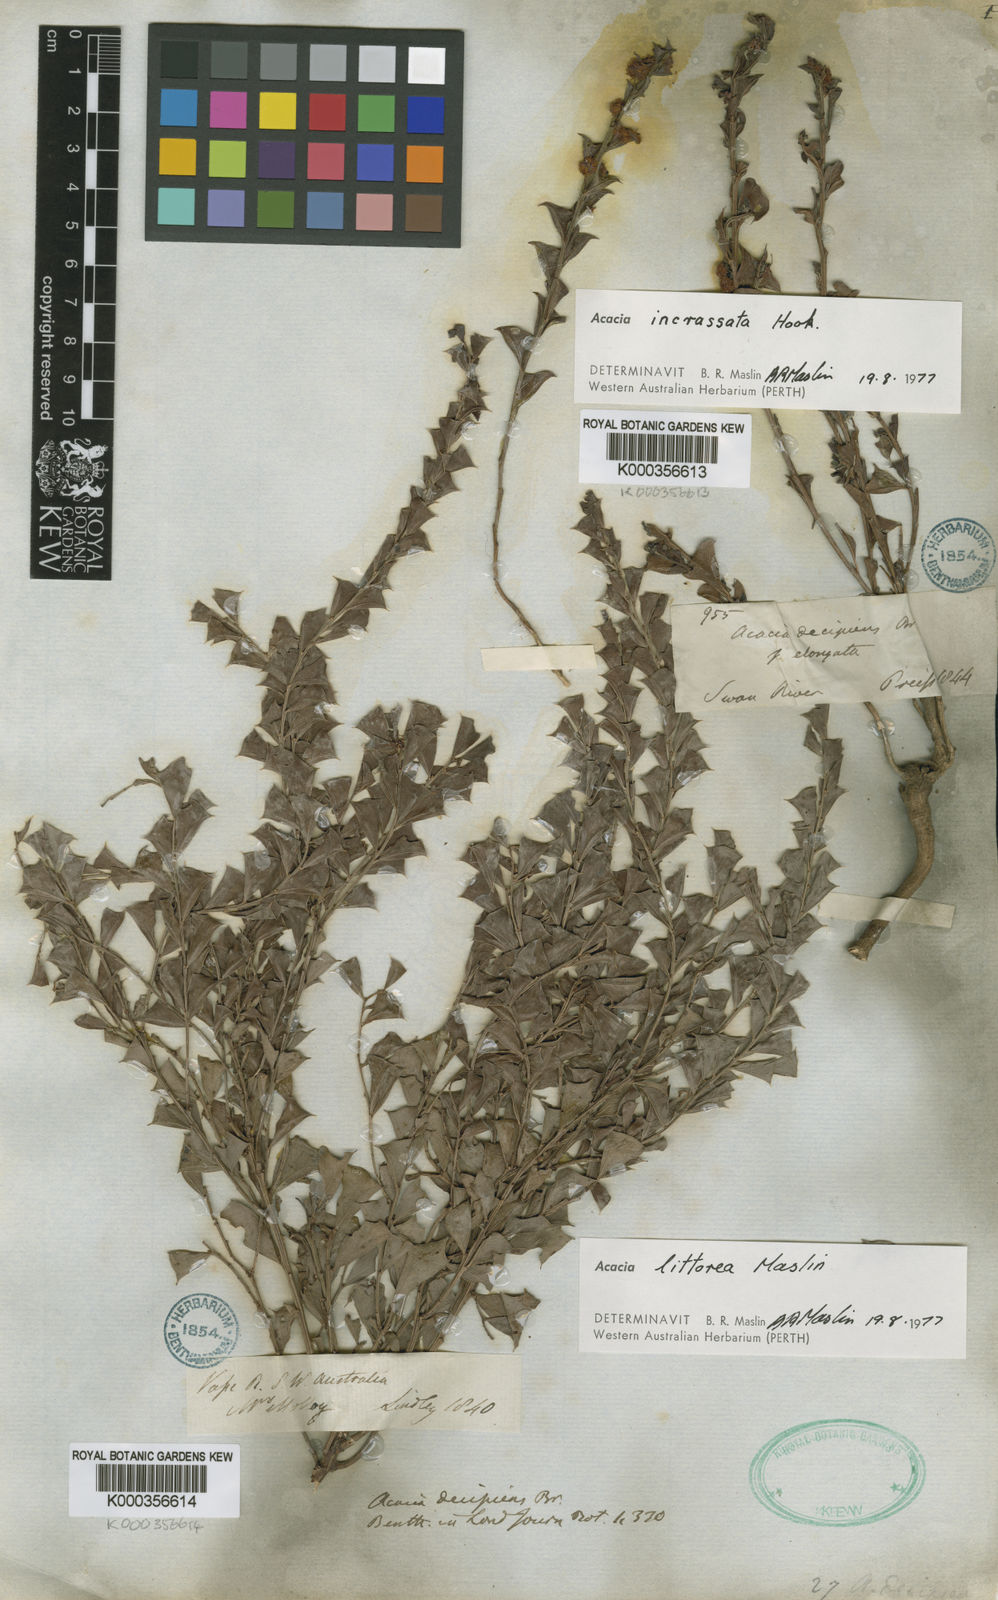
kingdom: Plantae
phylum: Tracheophyta
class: Magnoliopsida
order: Fabales
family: Fabaceae
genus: Acacia
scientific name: Acacia incrassata
